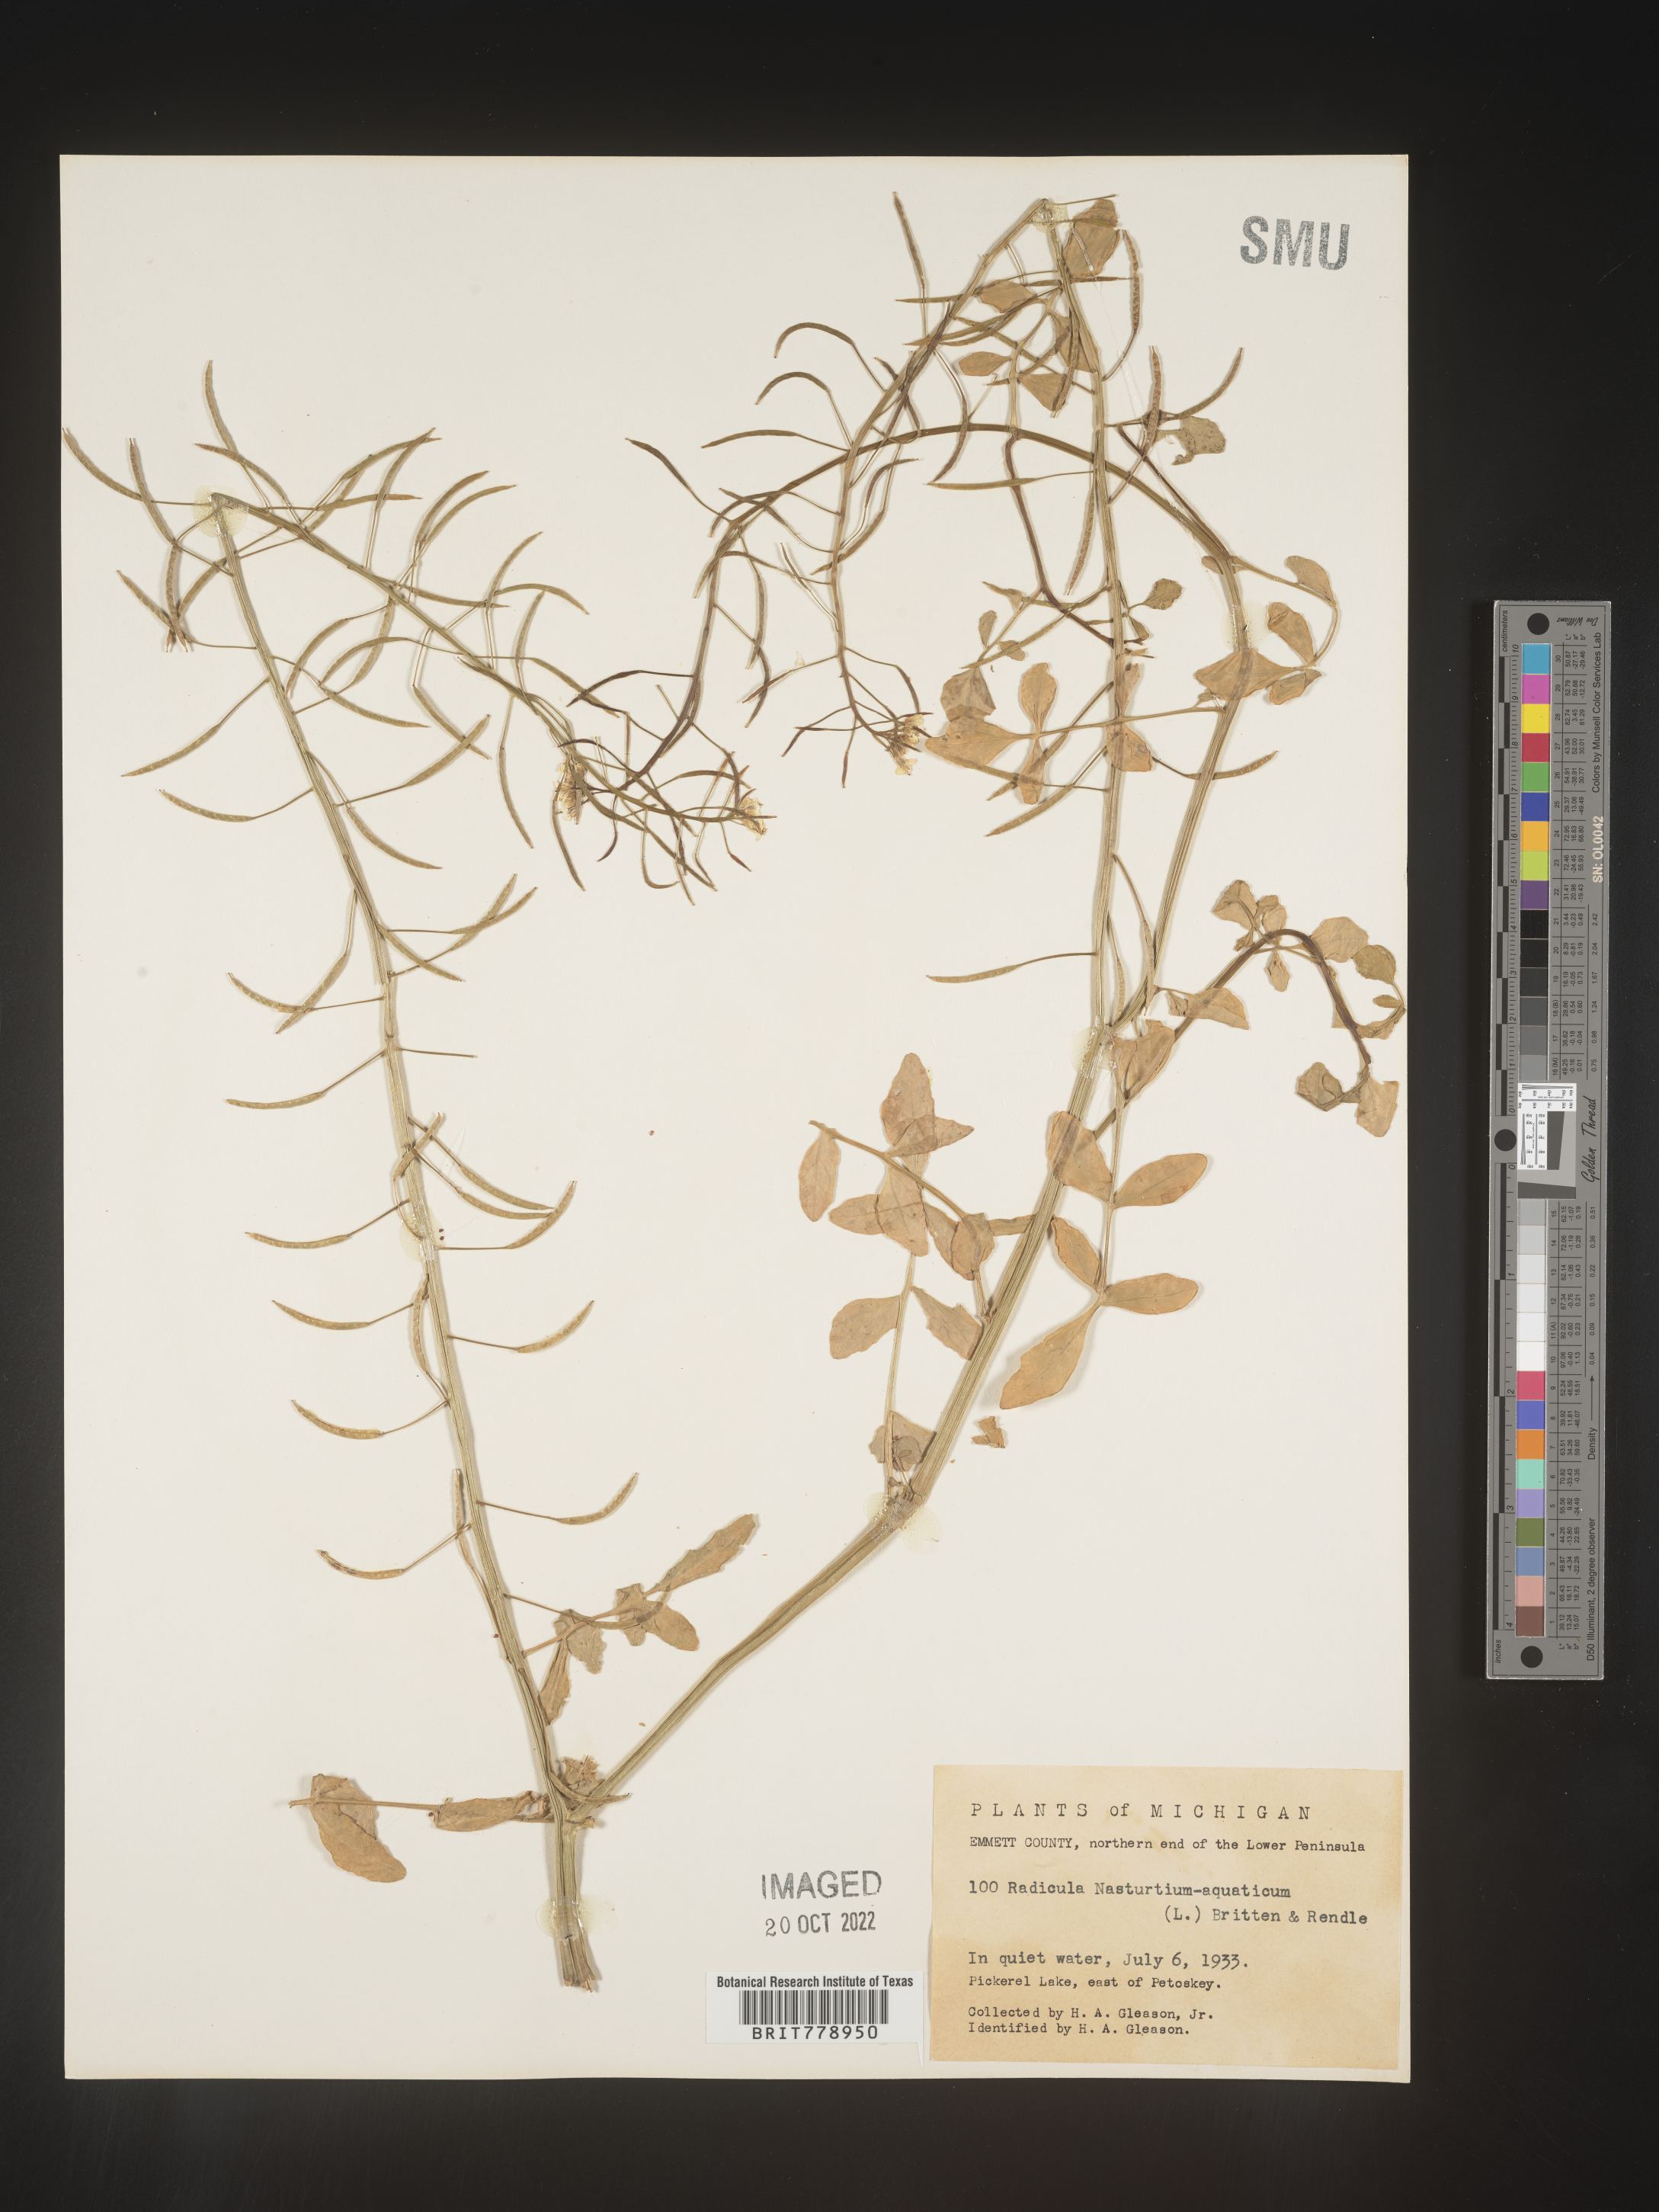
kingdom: Plantae
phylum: Tracheophyta
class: Magnoliopsida
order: Brassicales
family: Brassicaceae
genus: Nasturtium
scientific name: Nasturtium officinale
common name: Watercress
